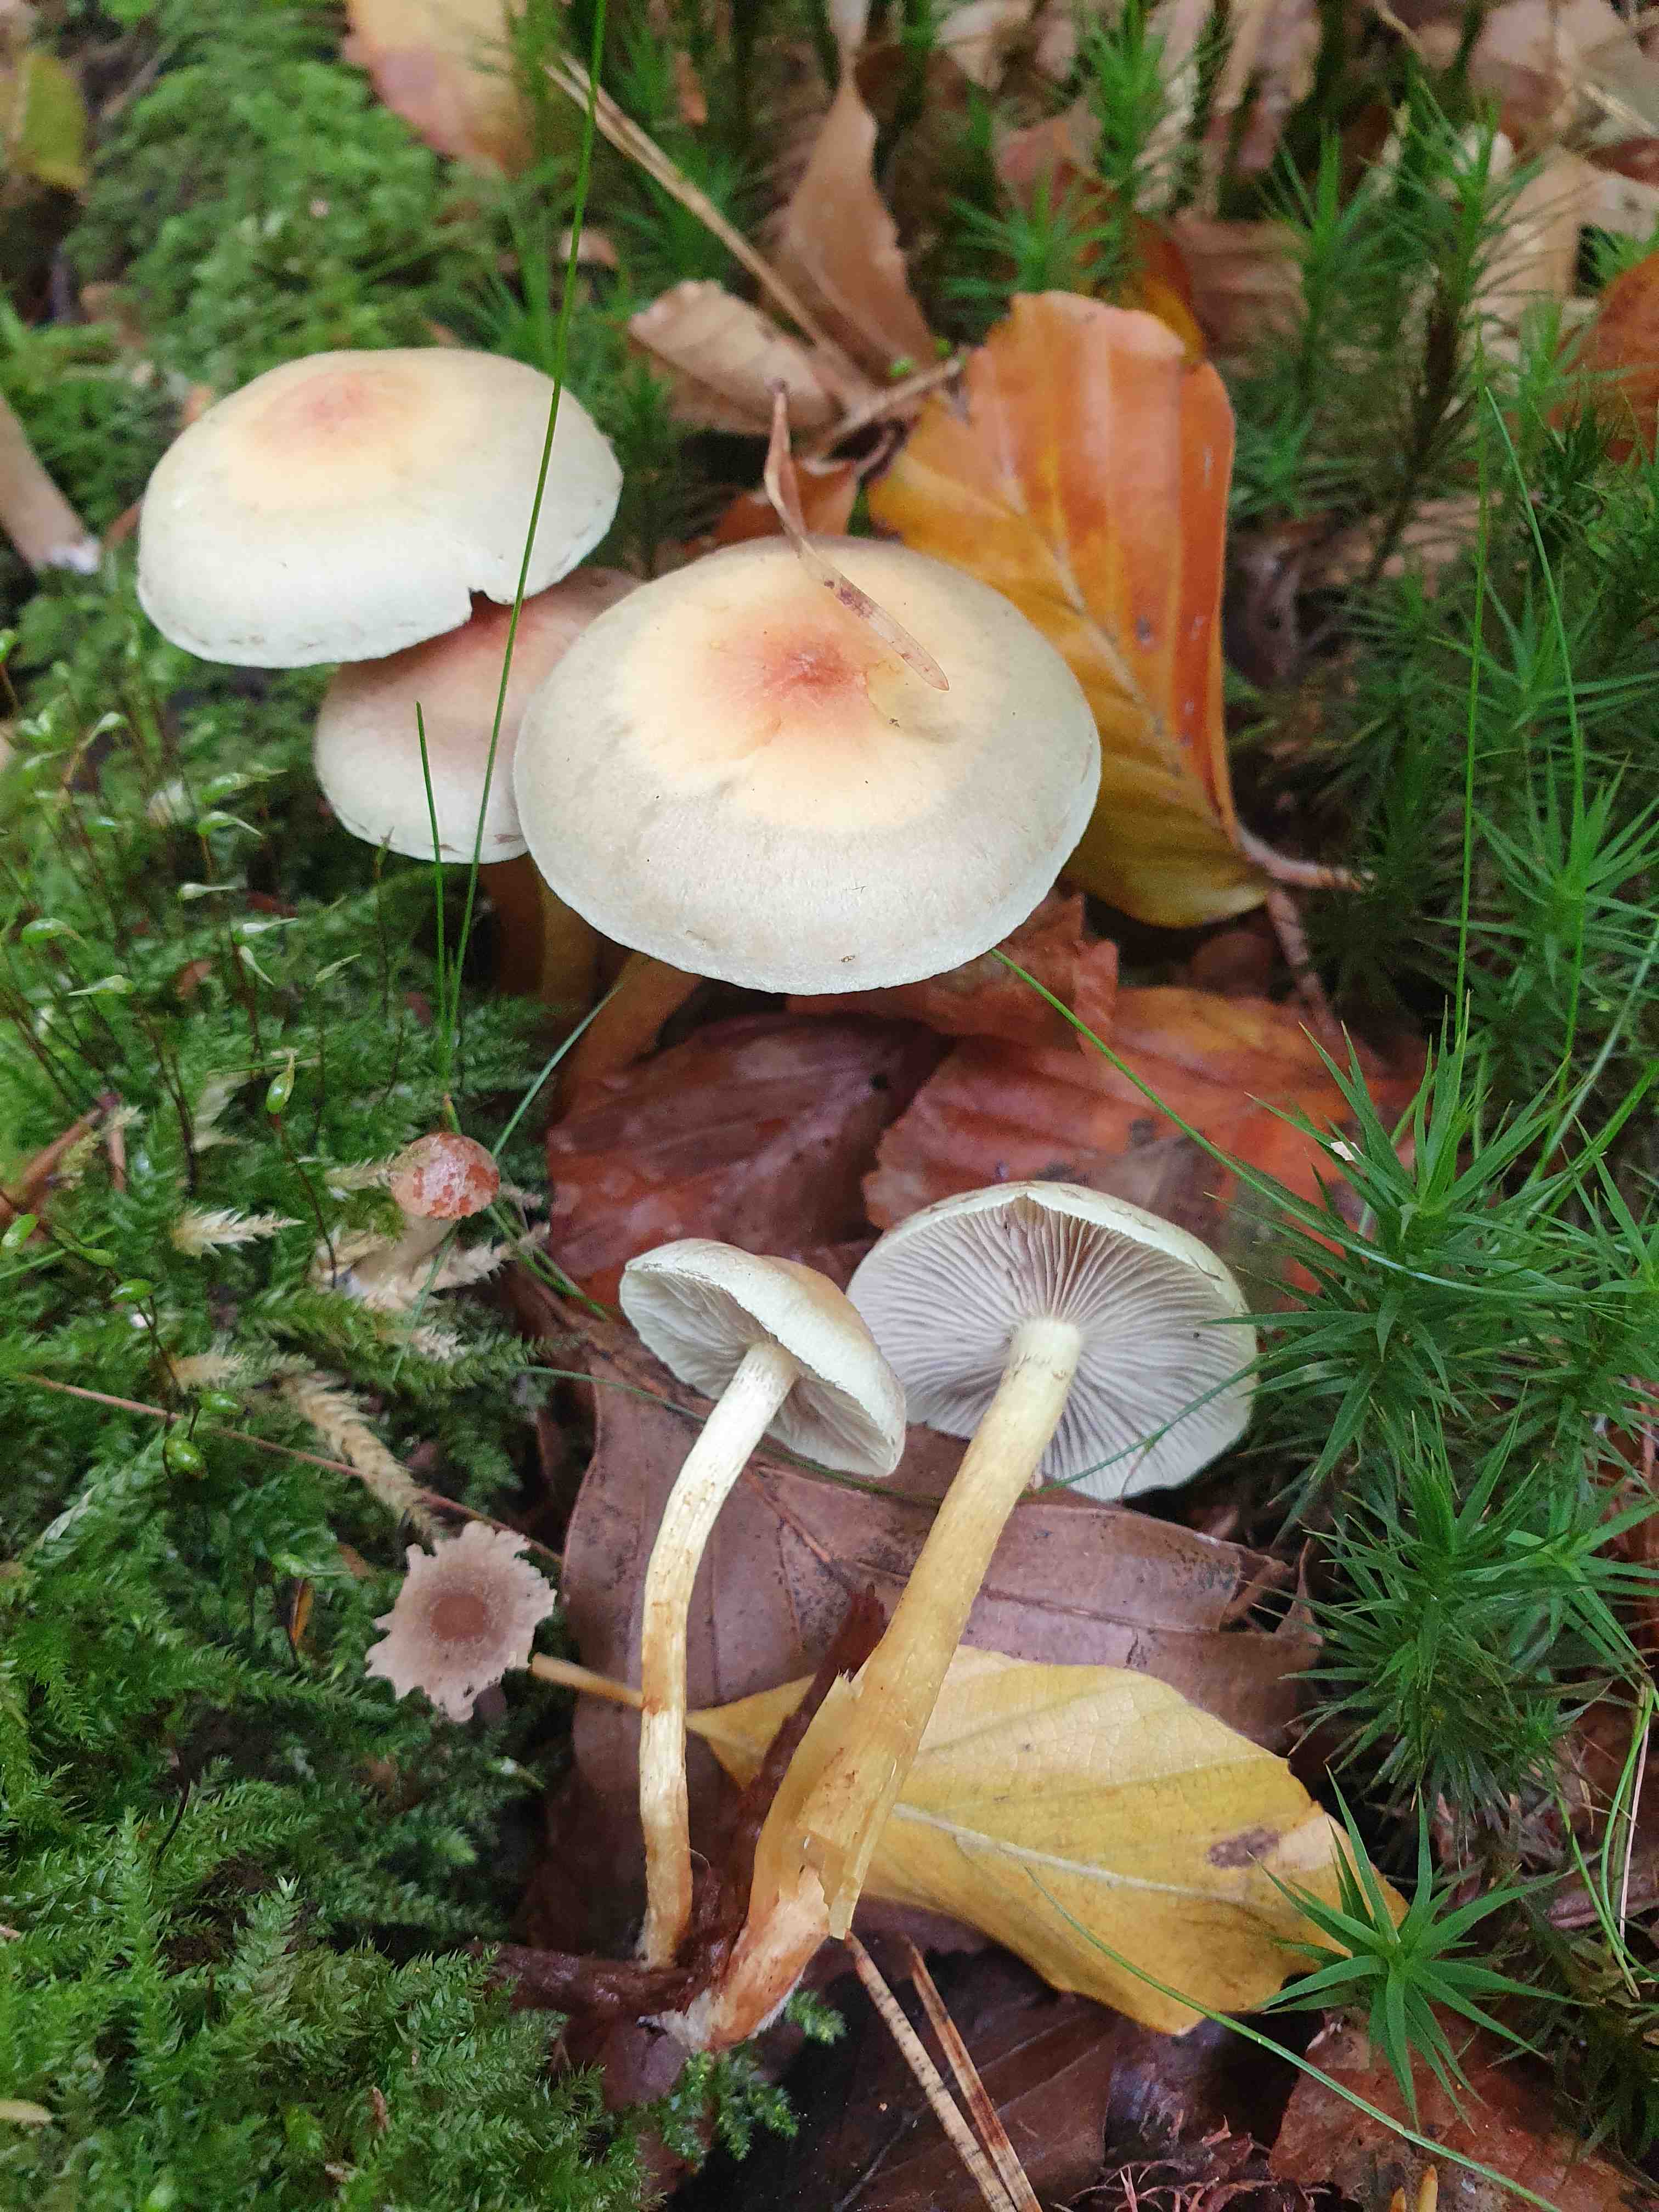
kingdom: Fungi
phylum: Basidiomycota
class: Agaricomycetes
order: Agaricales
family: Strophariaceae
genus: Hypholoma
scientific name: Hypholoma fasciculare
